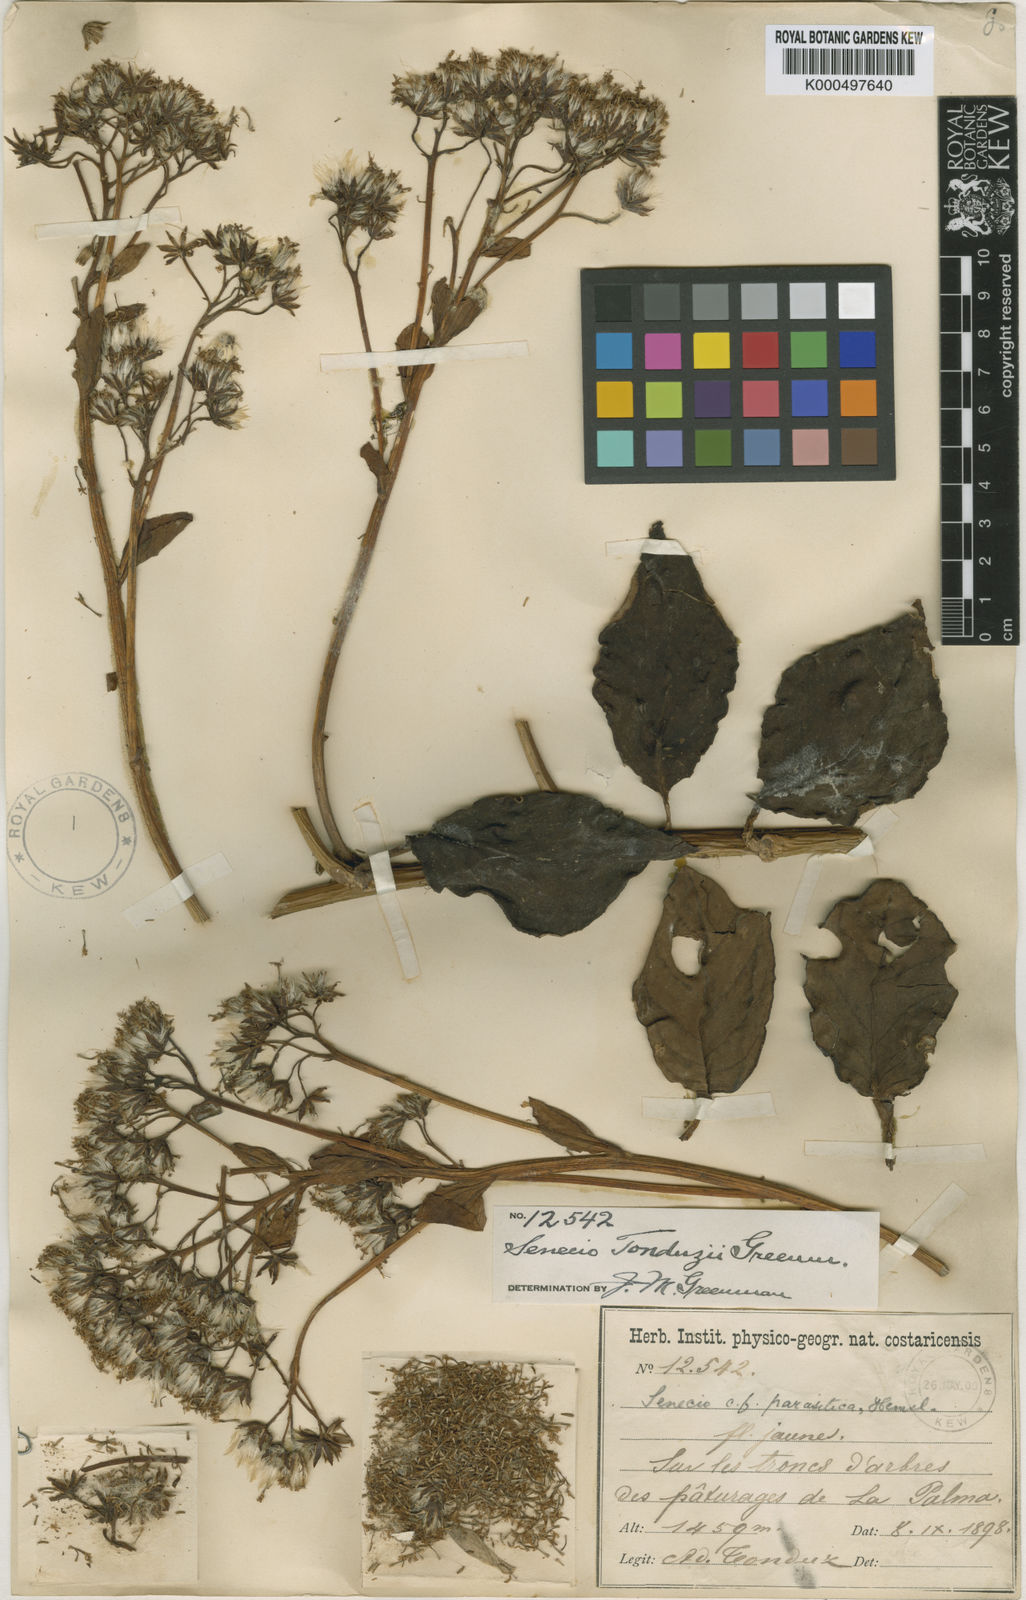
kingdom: Plantae
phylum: Tracheophyta
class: Magnoliopsida
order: Asterales
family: Asteraceae
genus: Pentacalia
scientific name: Pentacalia tonduzii
